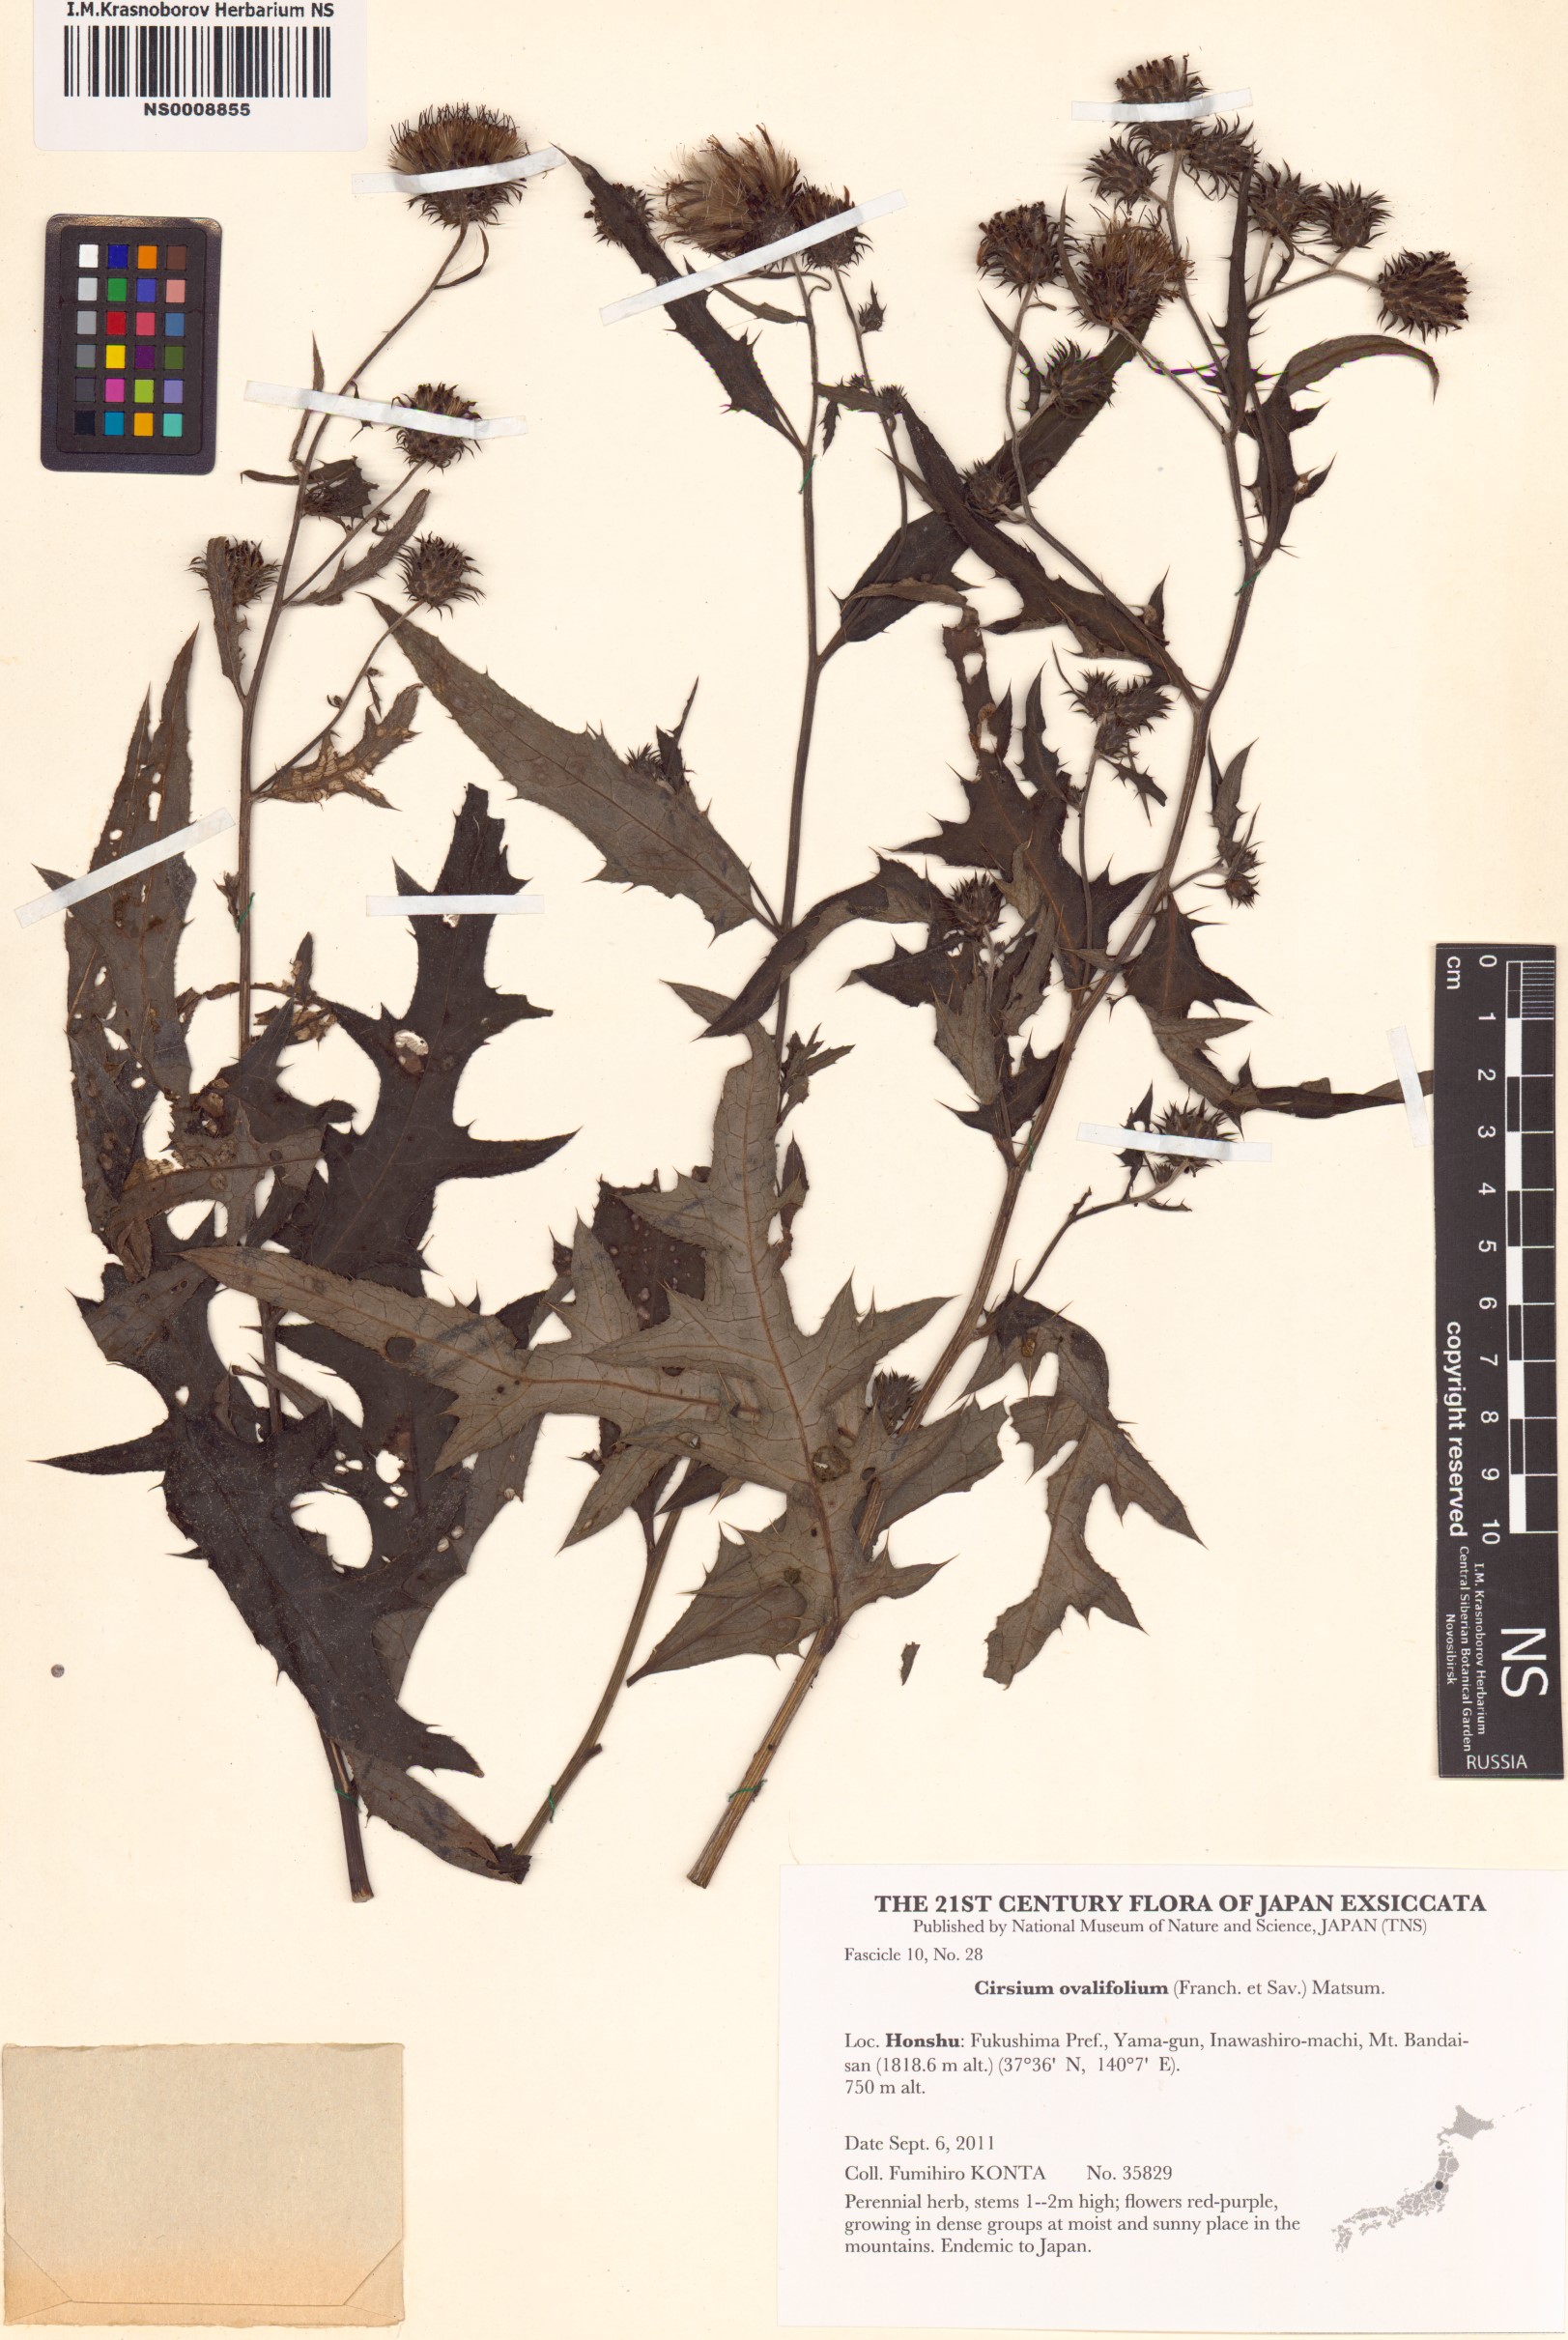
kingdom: Plantae
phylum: Tracheophyta
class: Magnoliopsida
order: Asterales
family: Asteraceae
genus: Cirsium
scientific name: Cirsium nipponicum
